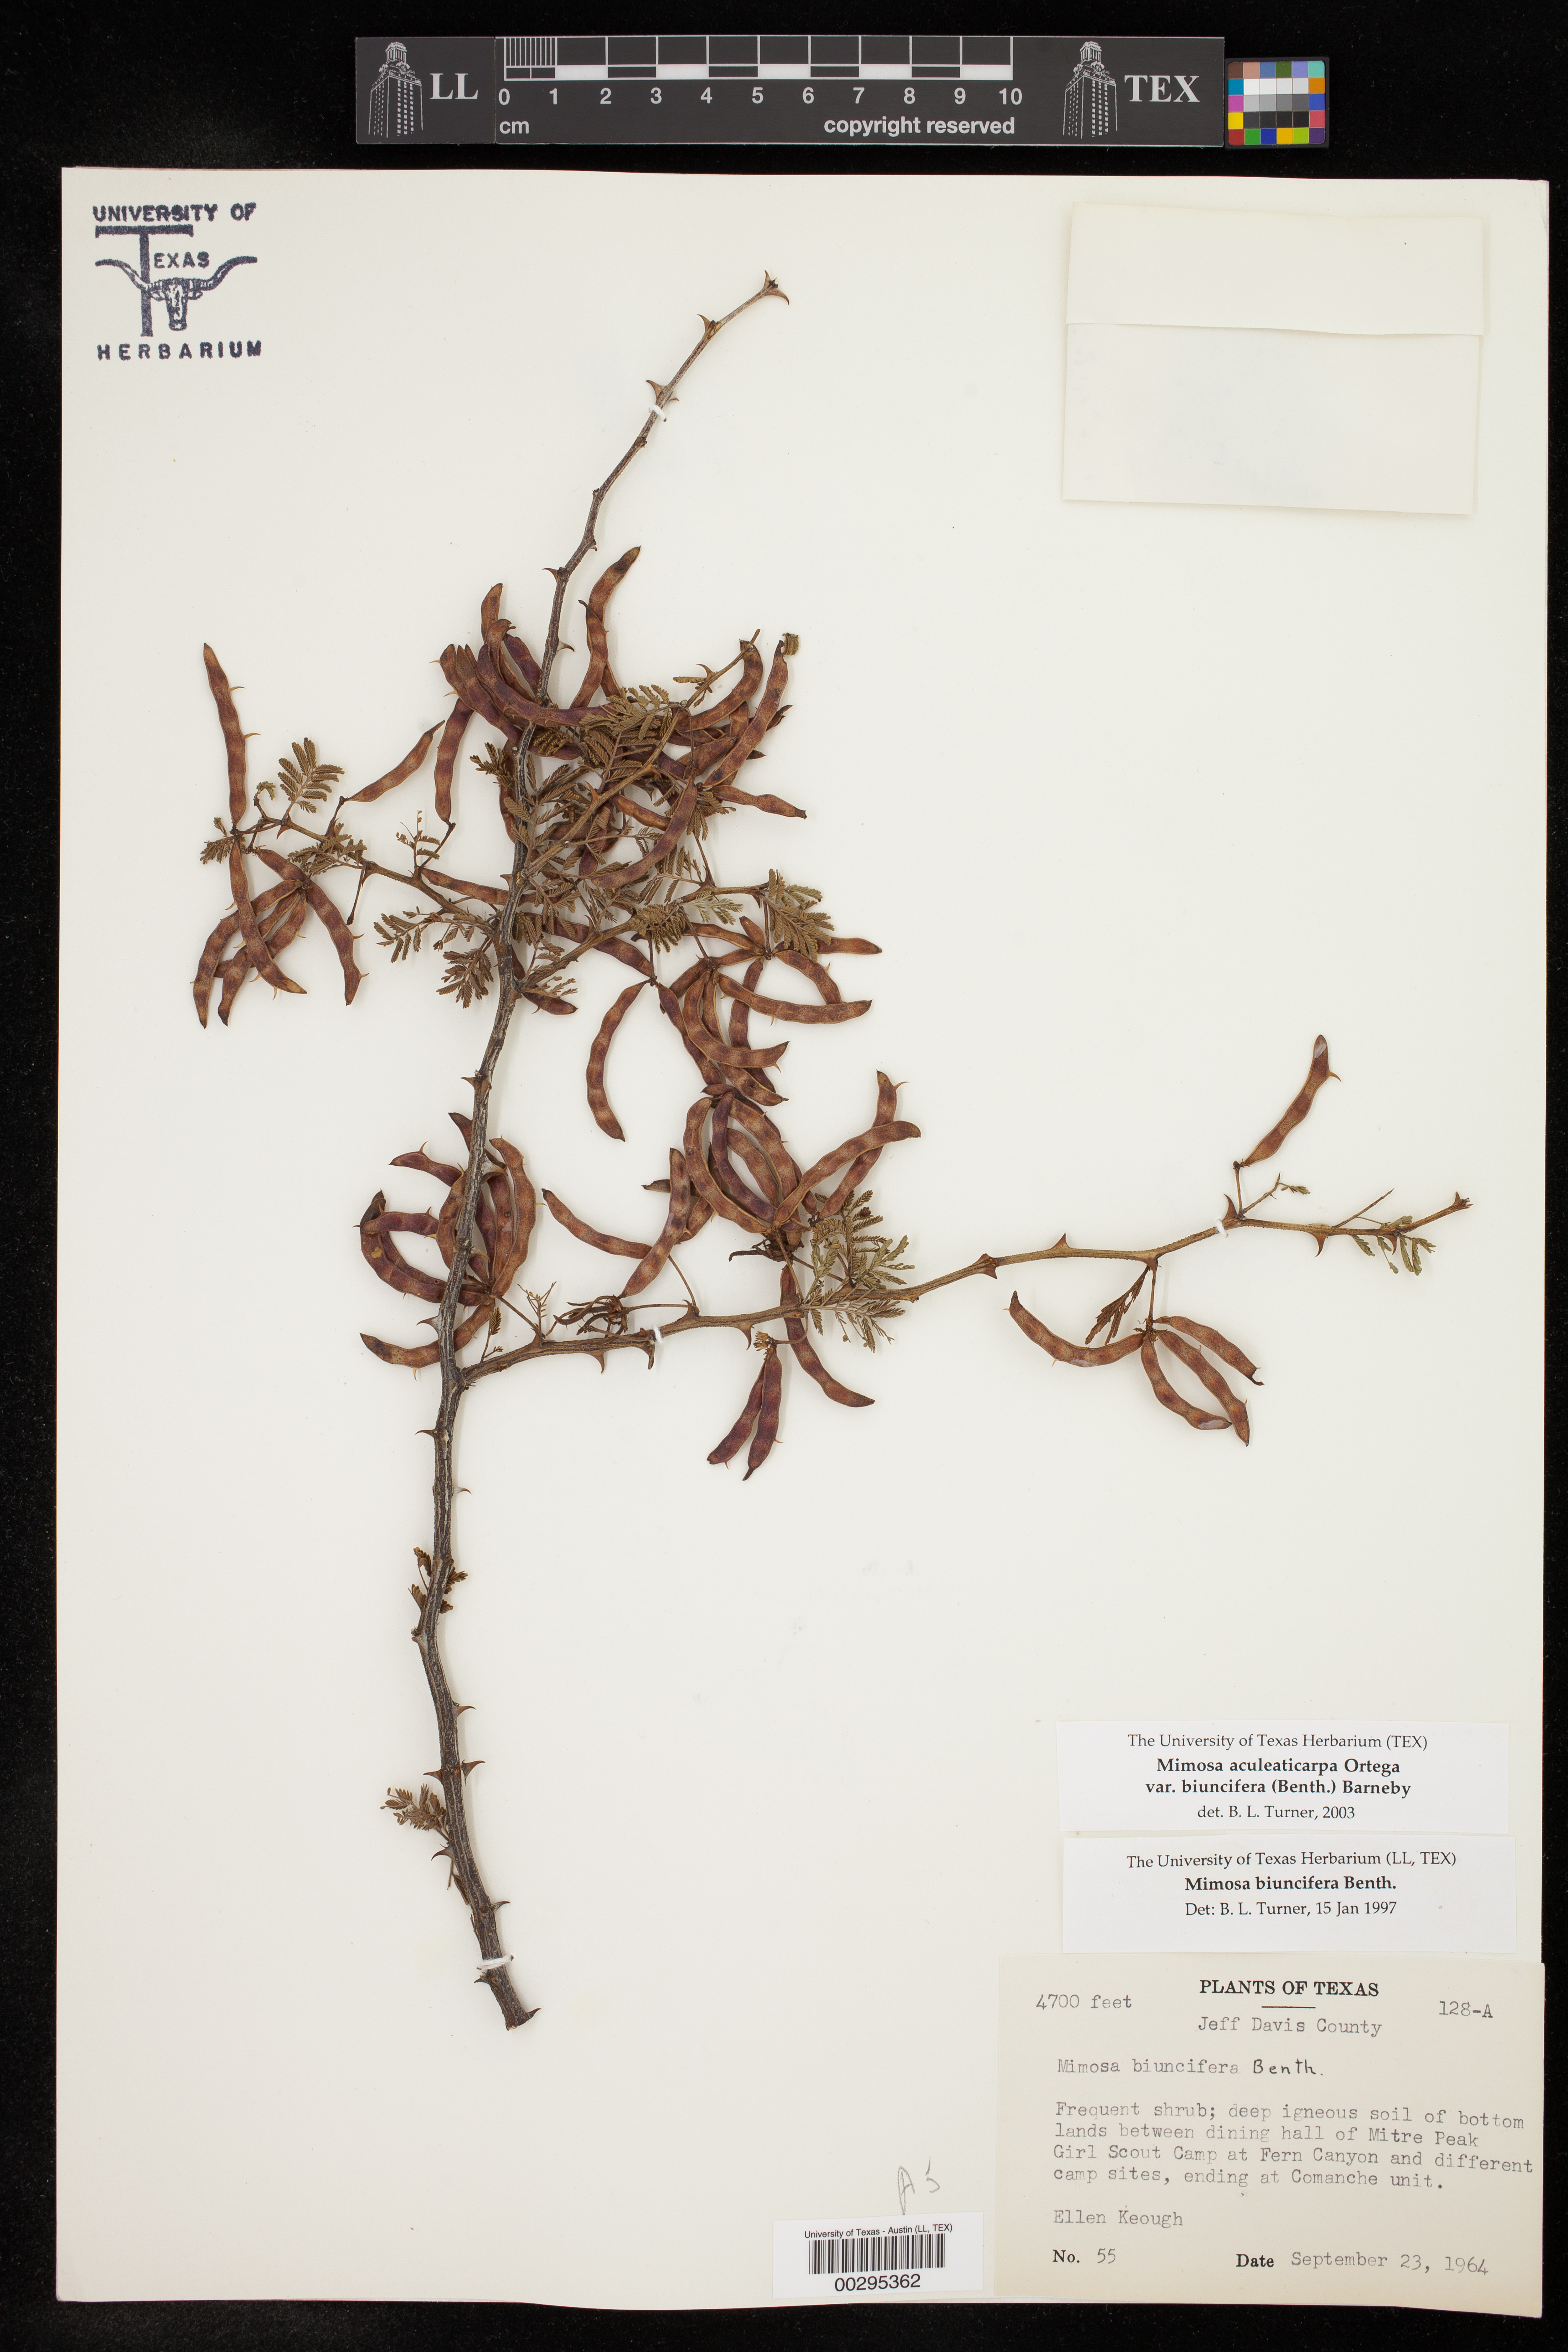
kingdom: Plantae
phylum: Tracheophyta
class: Magnoliopsida
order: Fabales
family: Fabaceae
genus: Mimosa
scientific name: Mimosa biuncifera
